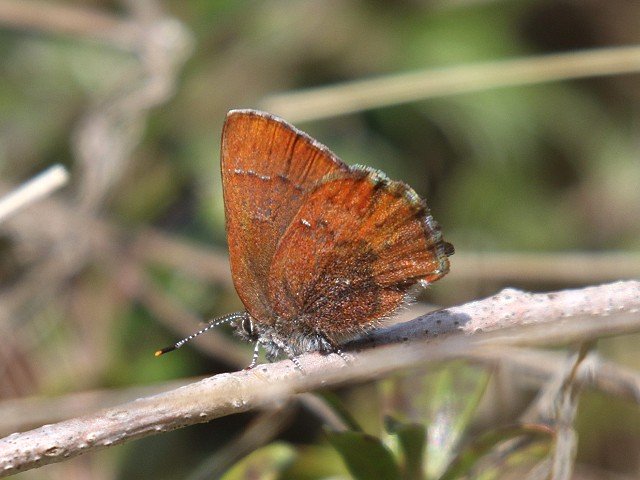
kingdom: Animalia
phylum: Arthropoda
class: Insecta
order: Lepidoptera
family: Lycaenidae
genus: Incisalia
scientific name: Incisalia irioides
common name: Brown Elfin
